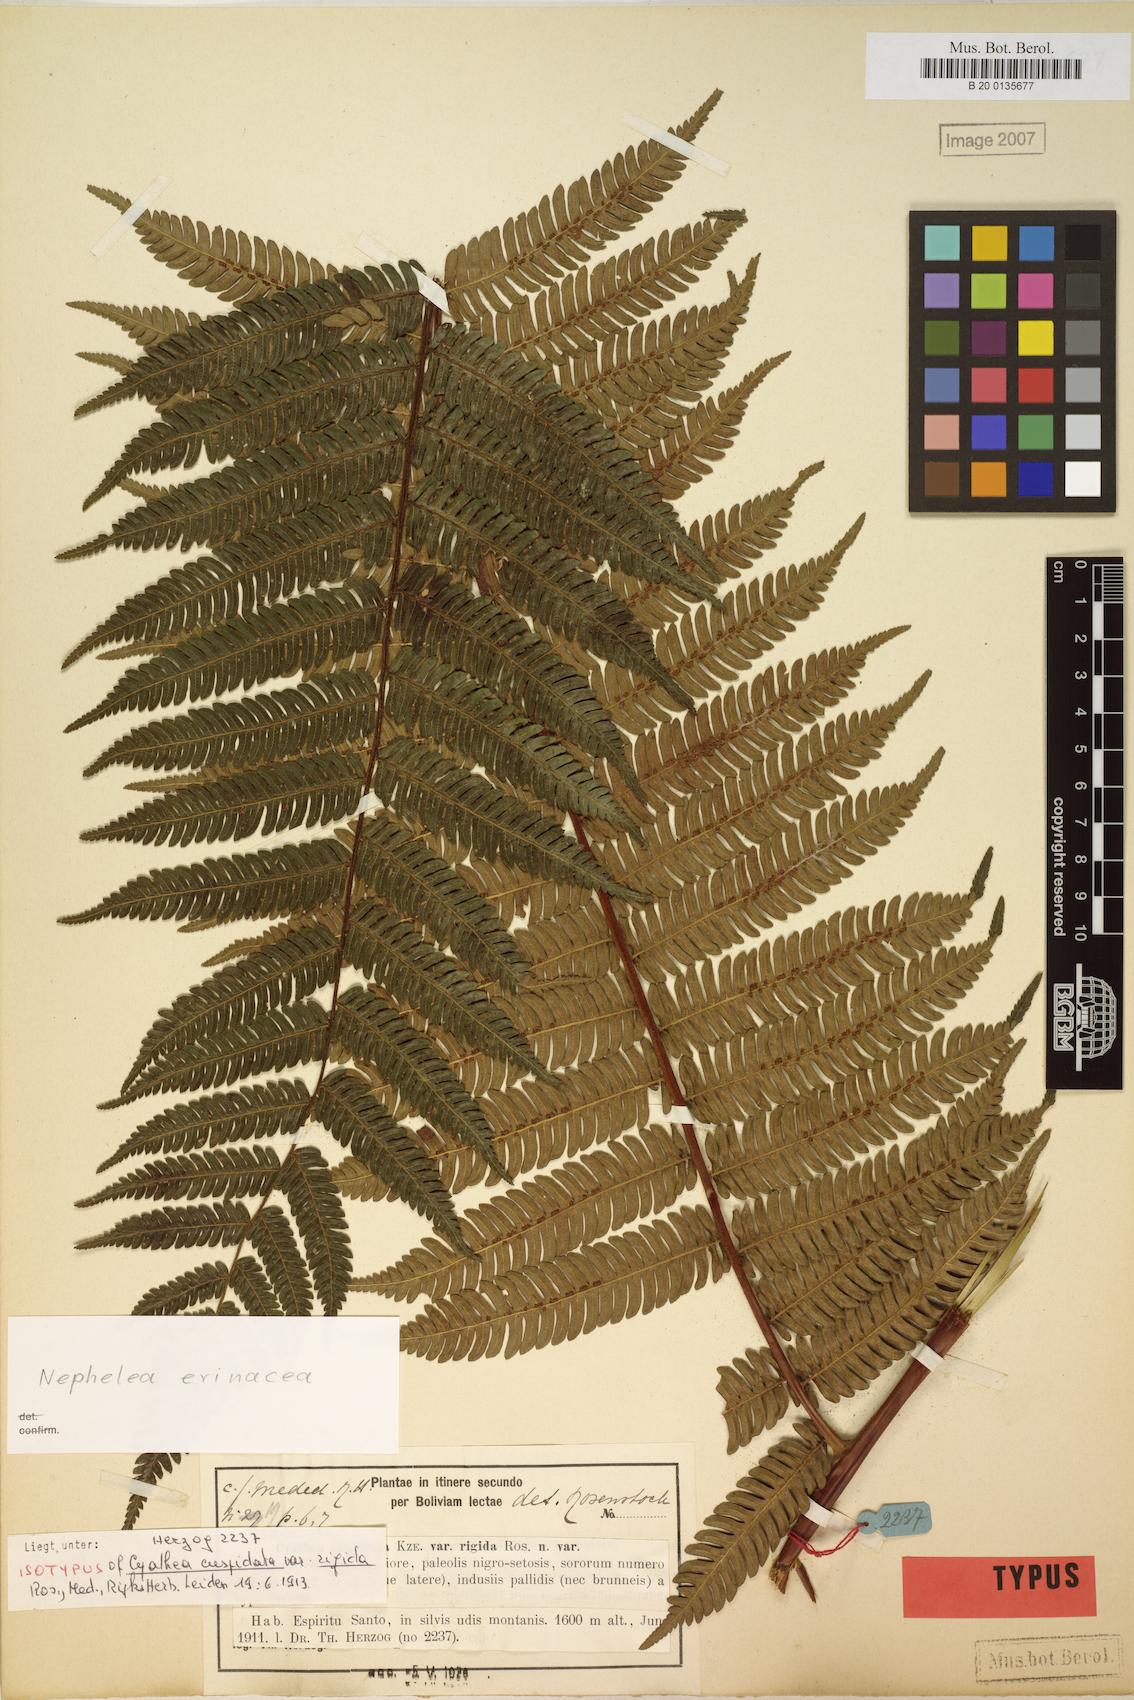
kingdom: Plantae
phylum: Tracheophyta
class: Polypodiopsida
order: Cyatheales
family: Cyatheaceae
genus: Alsophila
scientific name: Alsophila erinacea
